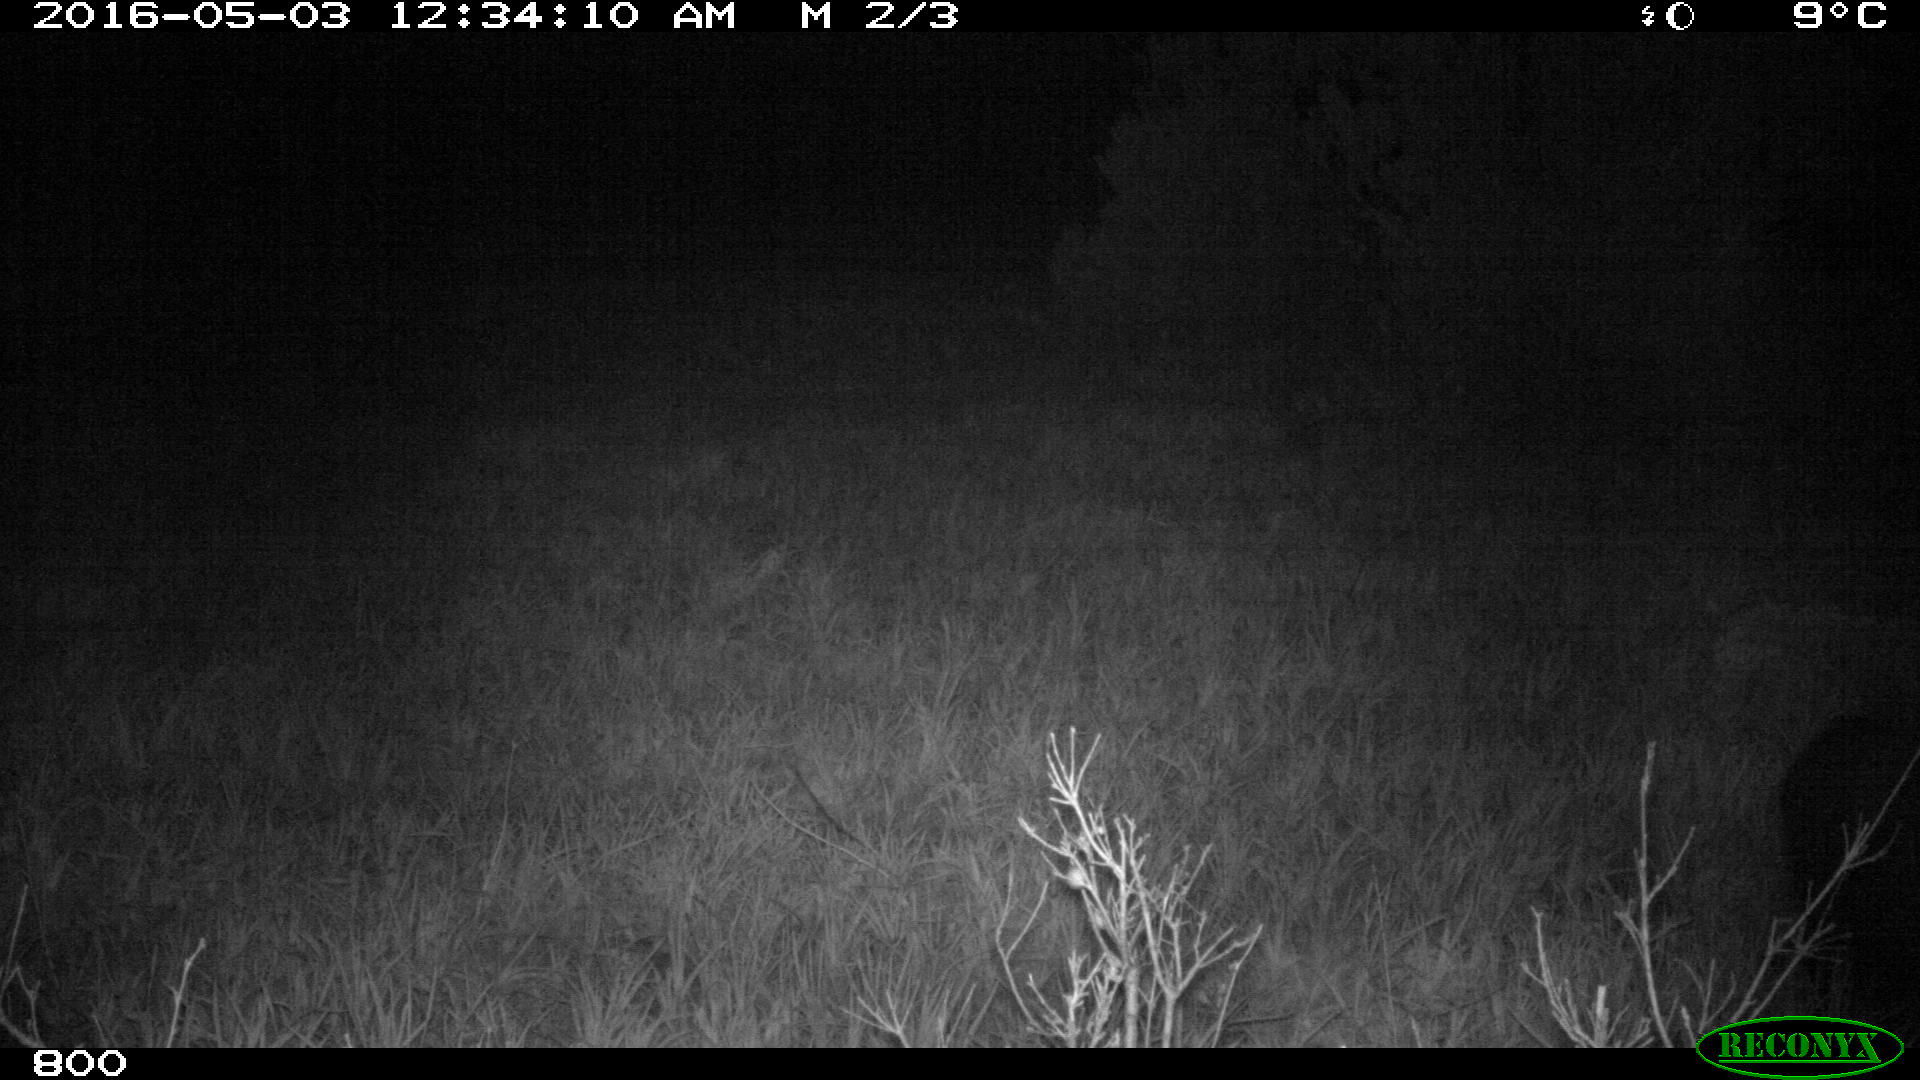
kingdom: Animalia
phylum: Chordata
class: Mammalia
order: Artiodactyla
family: Suidae
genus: Sus
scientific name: Sus scrofa
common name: Wild boar
